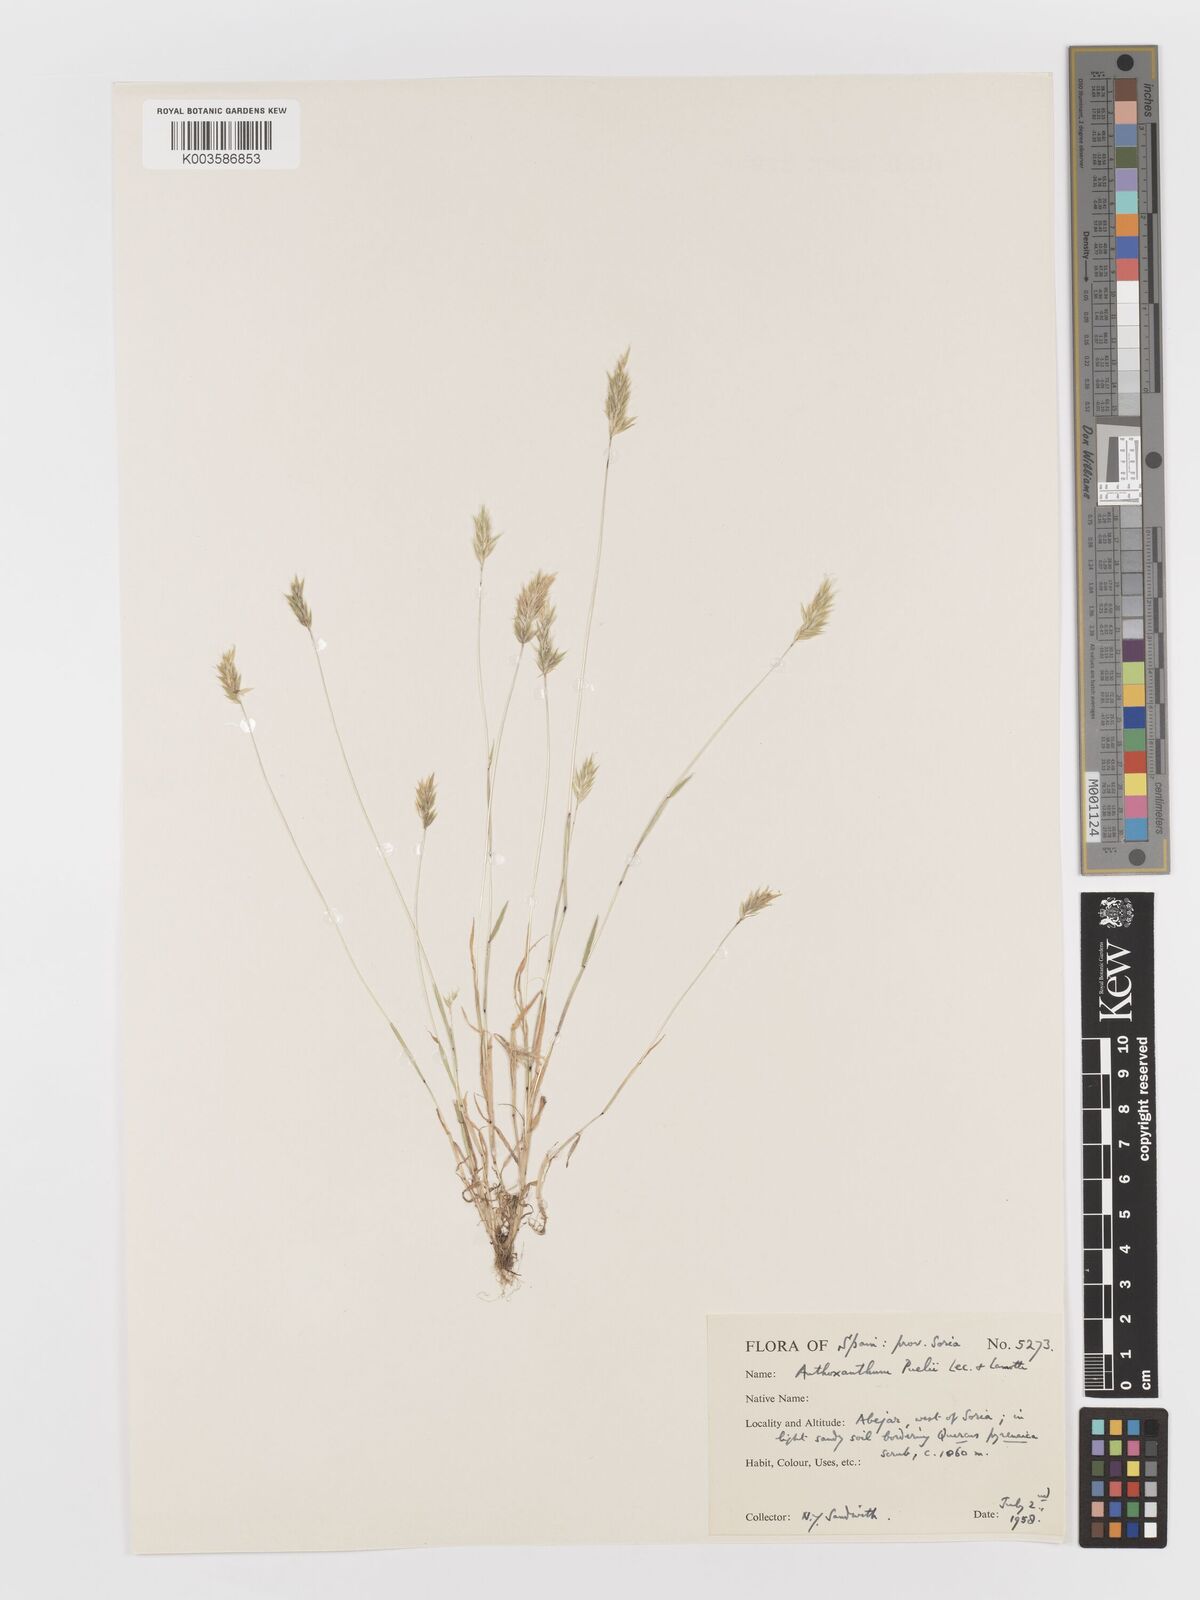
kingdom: Plantae
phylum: Tracheophyta
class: Liliopsida
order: Poales
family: Poaceae
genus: Anthoxanthum
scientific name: Anthoxanthum
